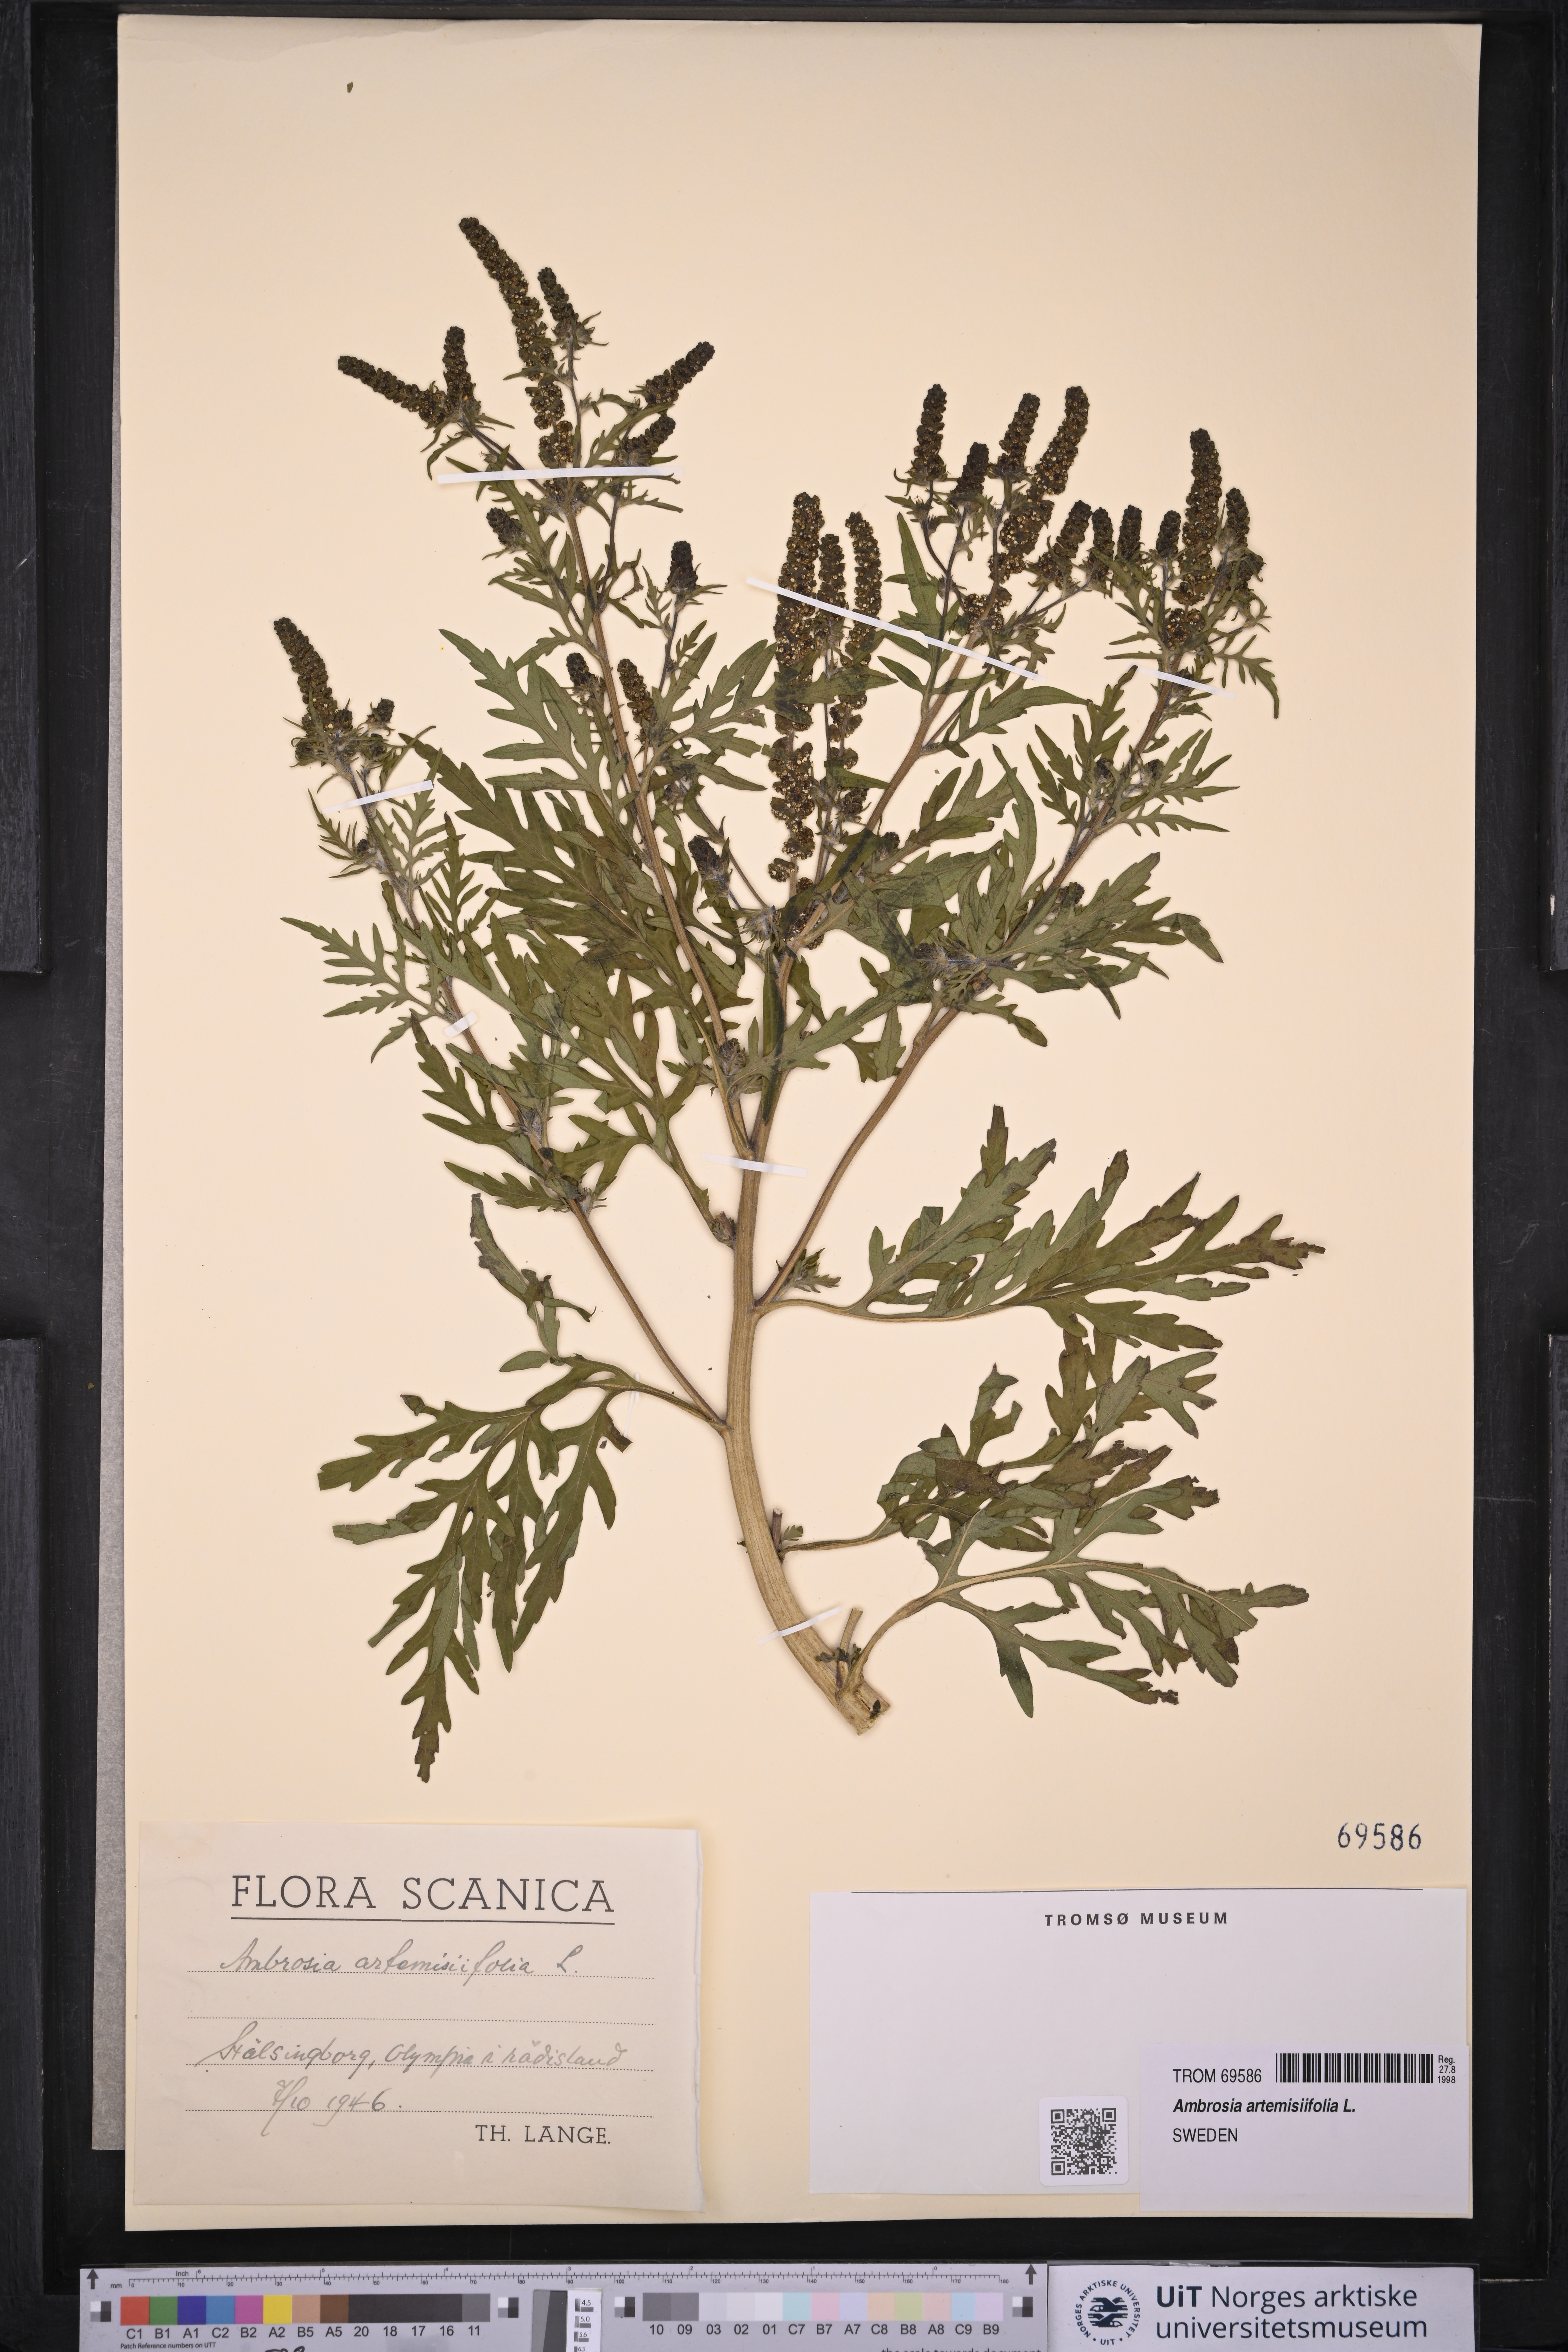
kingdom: Plantae
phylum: Tracheophyta
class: Magnoliopsida
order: Asterales
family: Asteraceae
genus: Ambrosia
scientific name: Ambrosia artemisiifolia
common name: Annual ragweed
